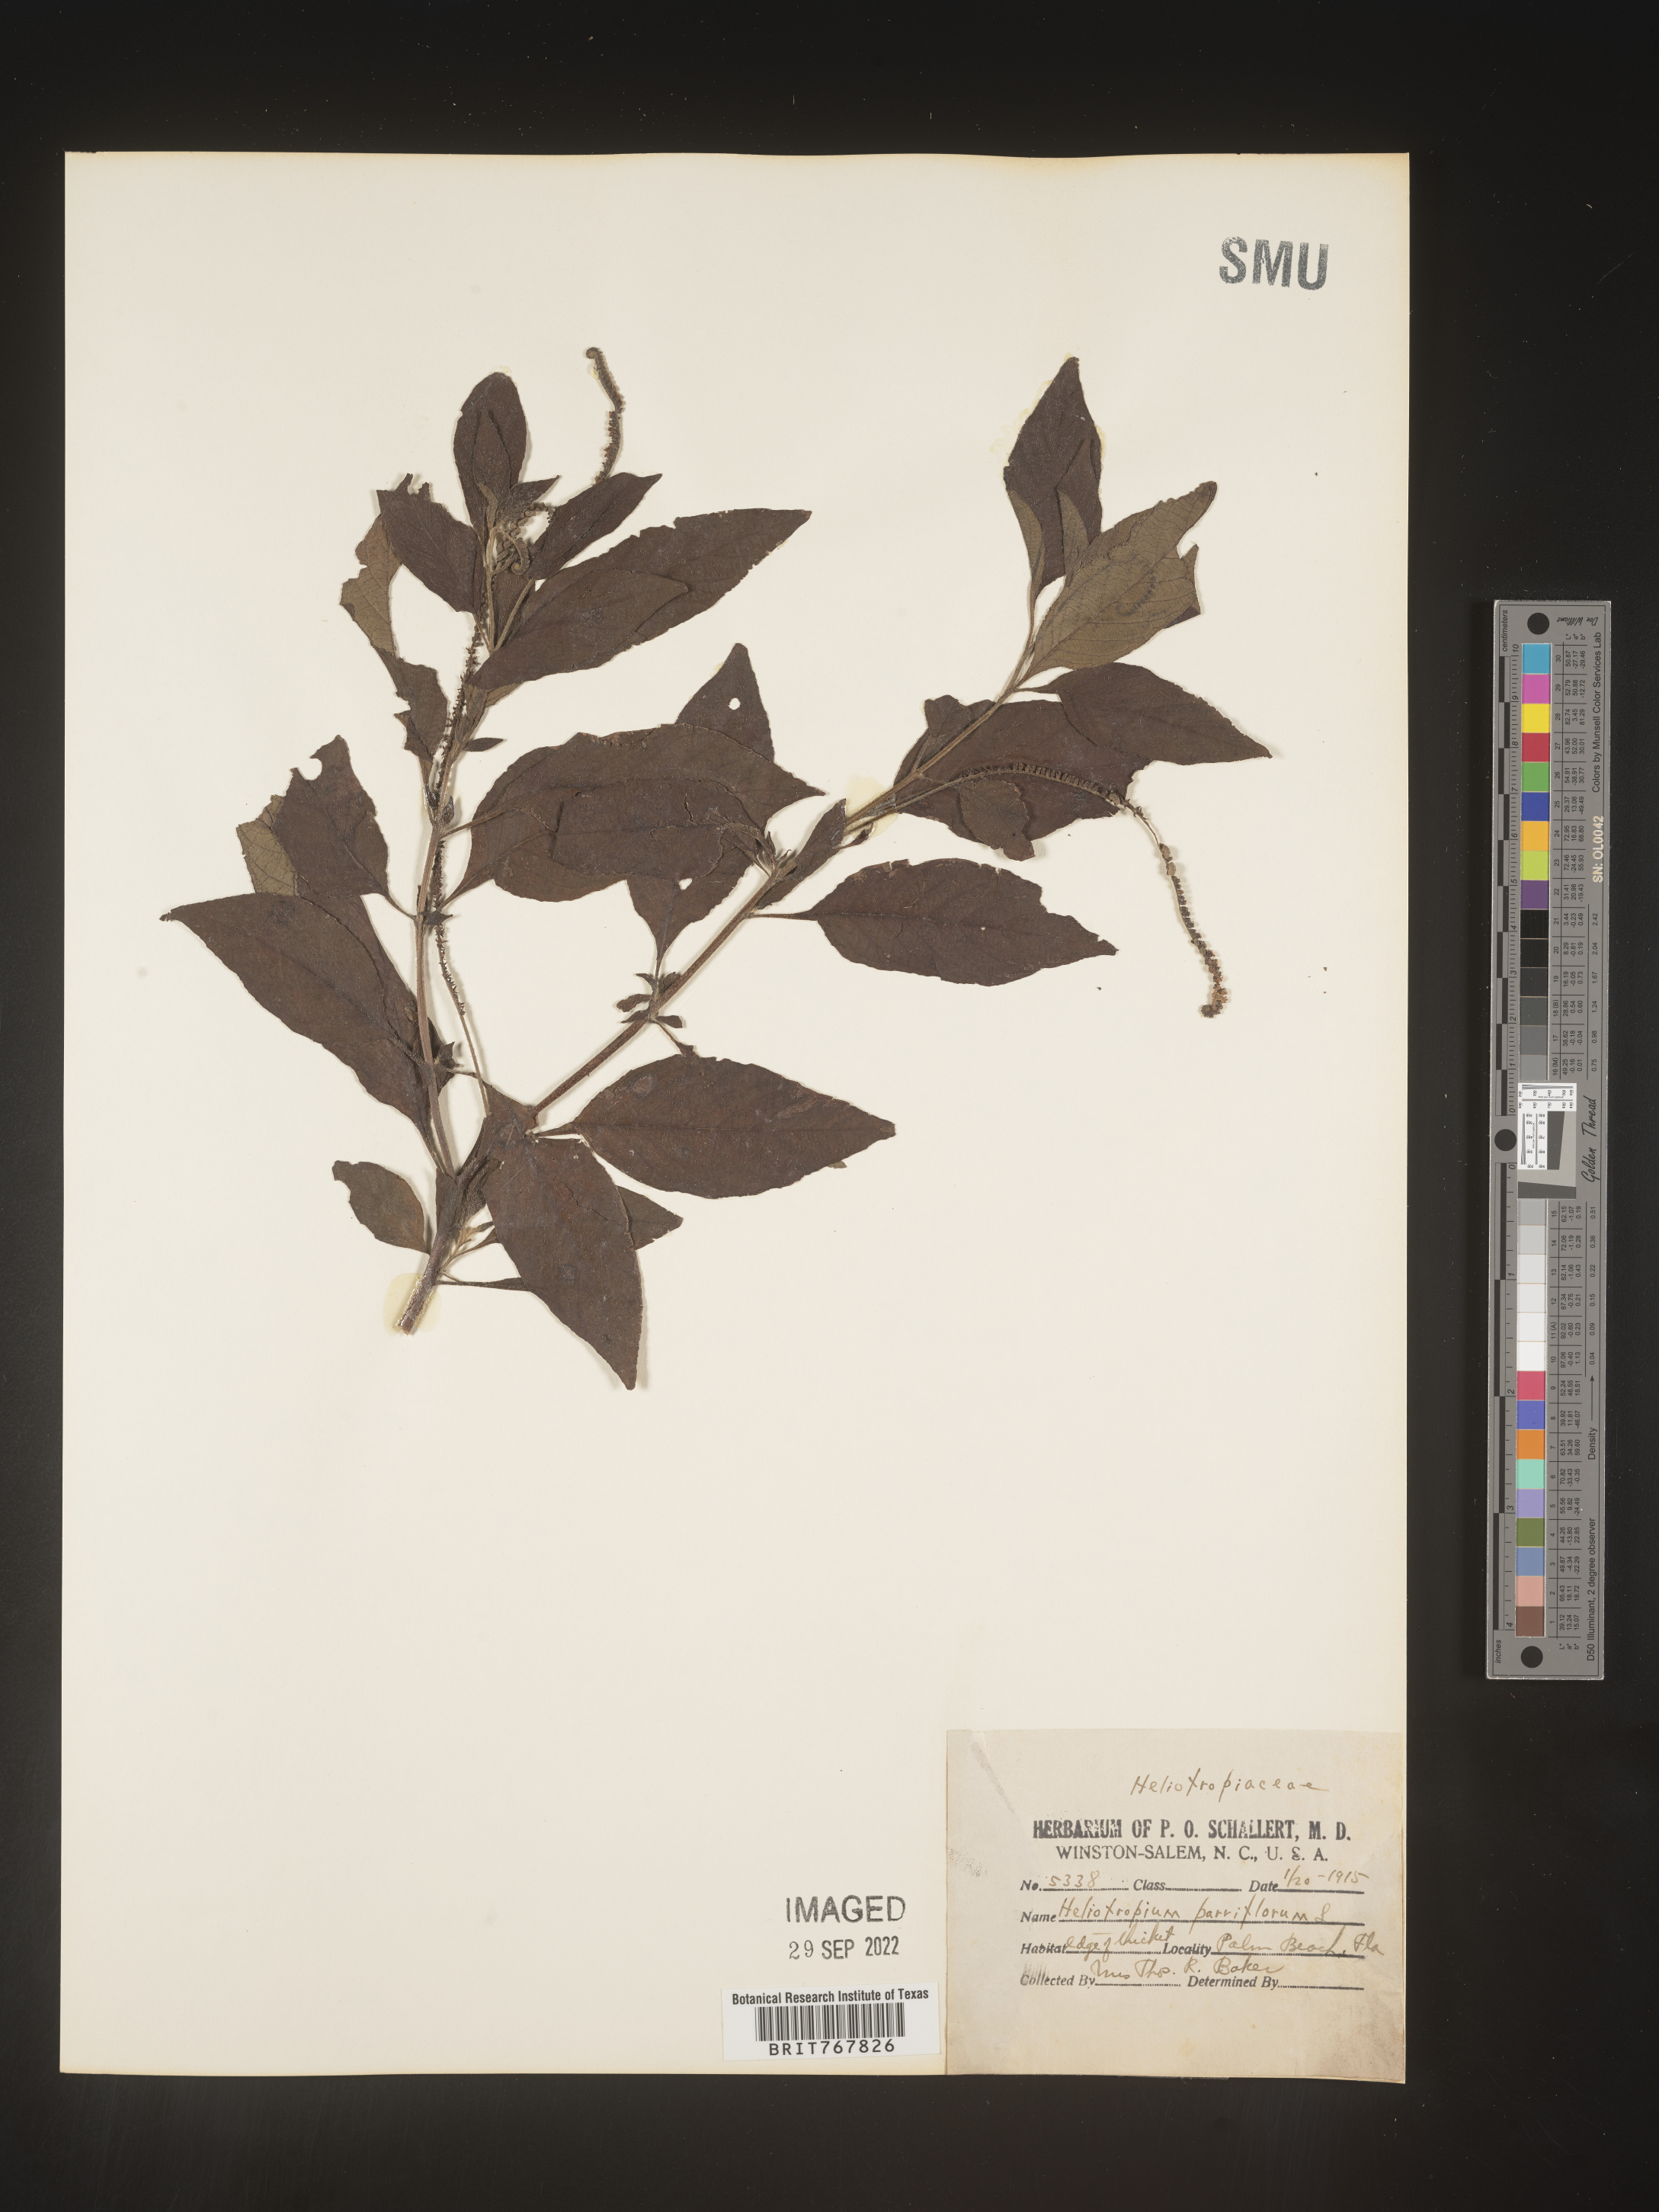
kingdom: Plantae
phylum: Tracheophyta
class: Magnoliopsida
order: Boraginales
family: Heliotropiaceae
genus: Heliotropium
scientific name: Heliotropium
